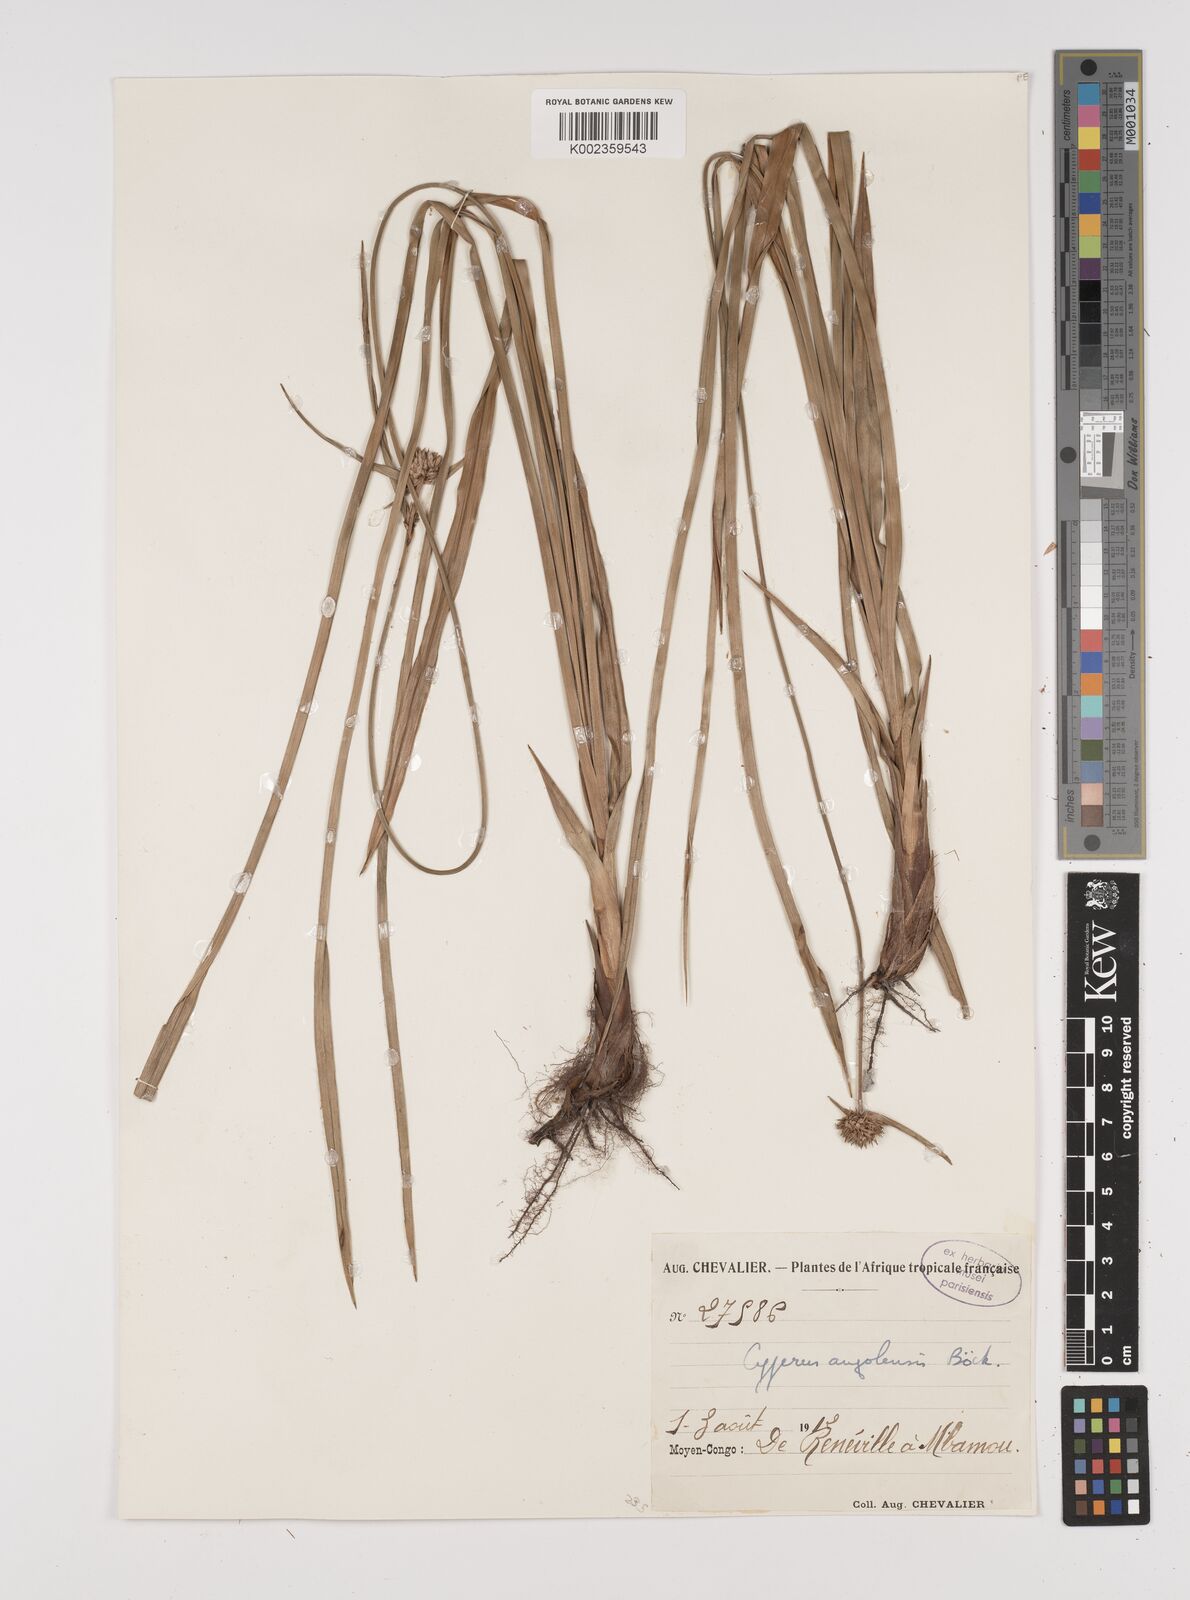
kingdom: Plantae
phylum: Tracheophyta
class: Liliopsida
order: Poales
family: Cyperaceae
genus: Cyperus
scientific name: Cyperus angolensis
